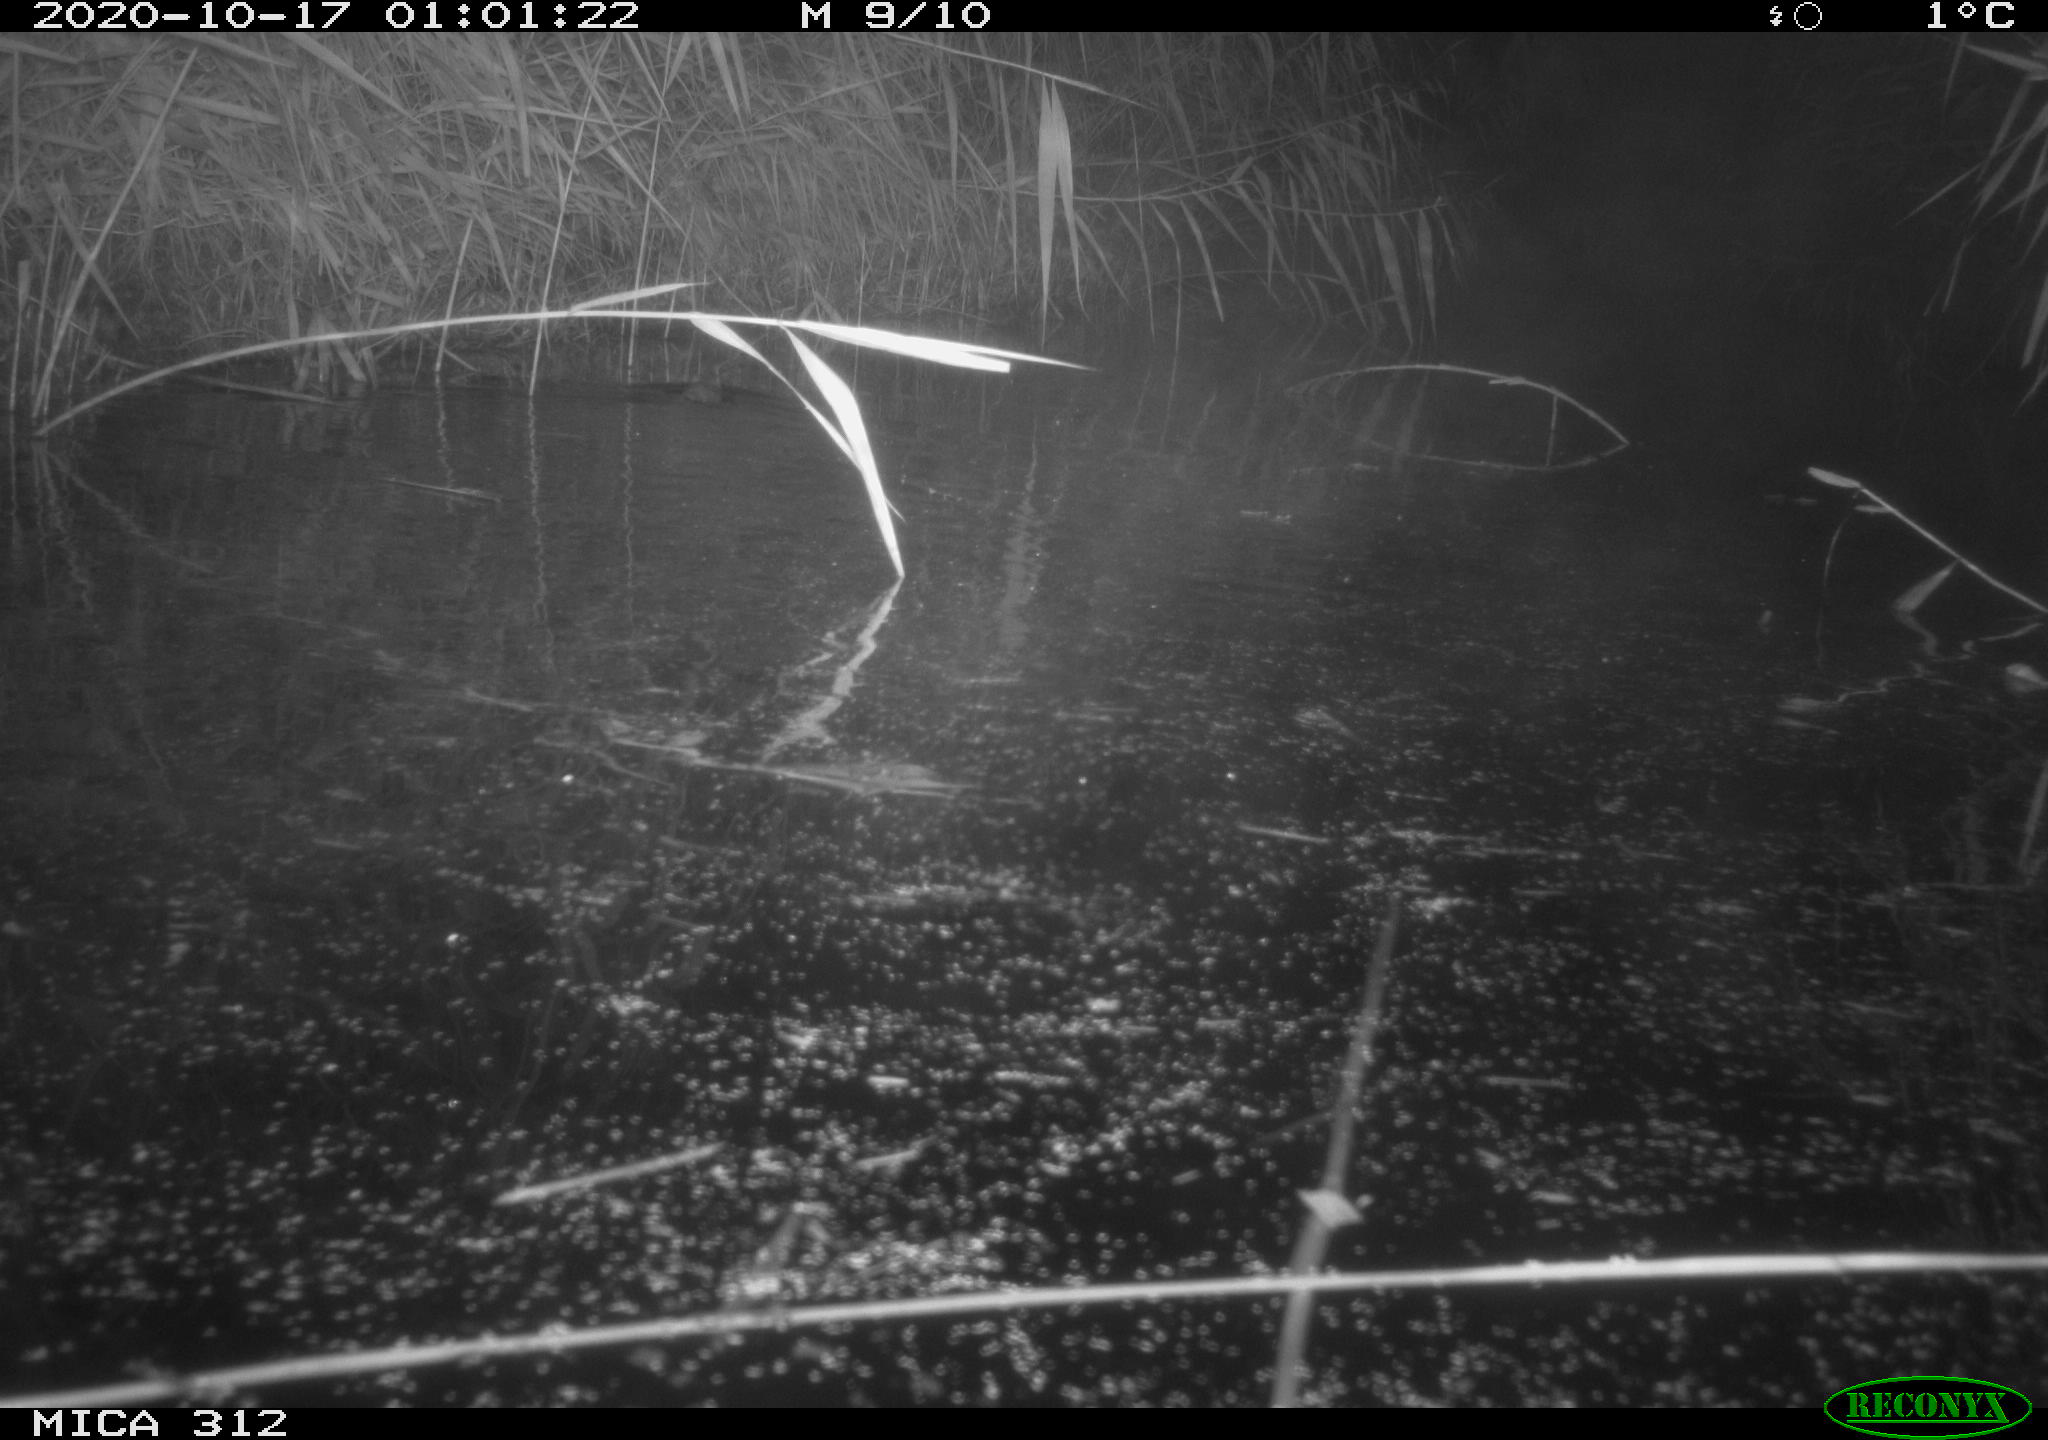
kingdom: Animalia
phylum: Chordata
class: Mammalia
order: Rodentia
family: Muridae
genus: Rattus
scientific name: Rattus norvegicus
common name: Brown rat
